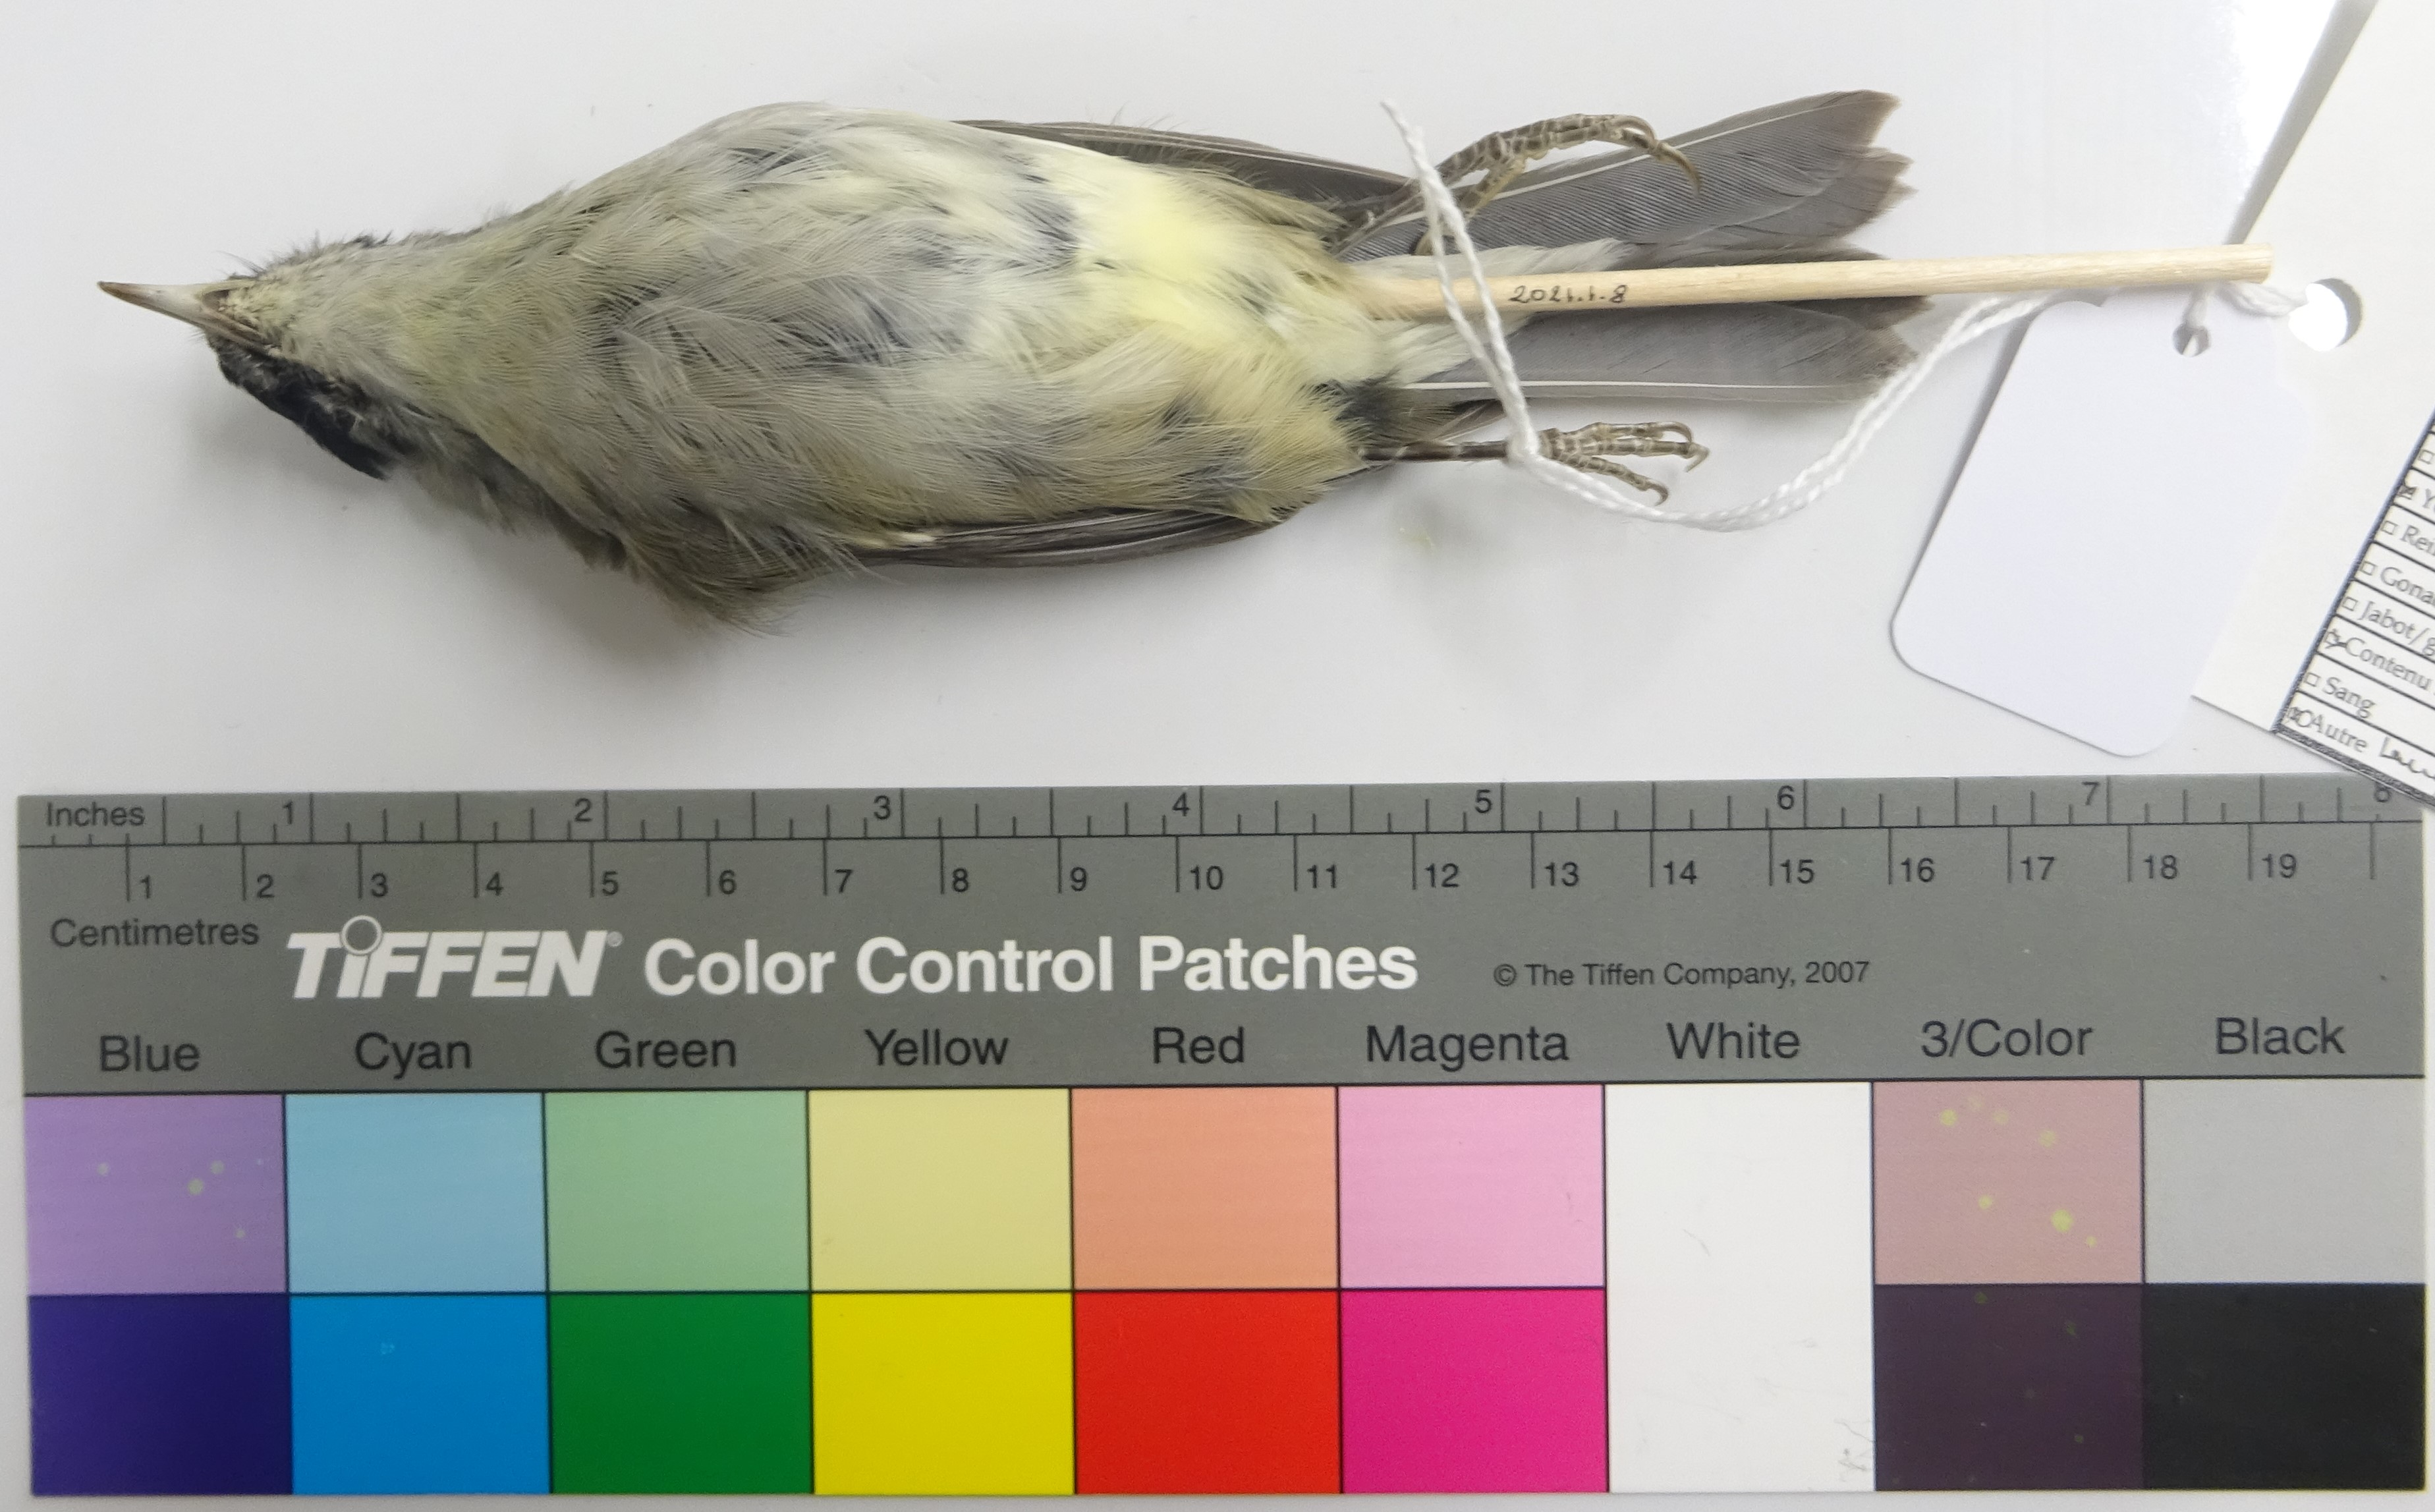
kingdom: Animalia
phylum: Chordata
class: Aves
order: Passeriformes
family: Sylviidae
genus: Sylvia
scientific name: Sylvia atricapilla
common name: Eurasian blackcap
